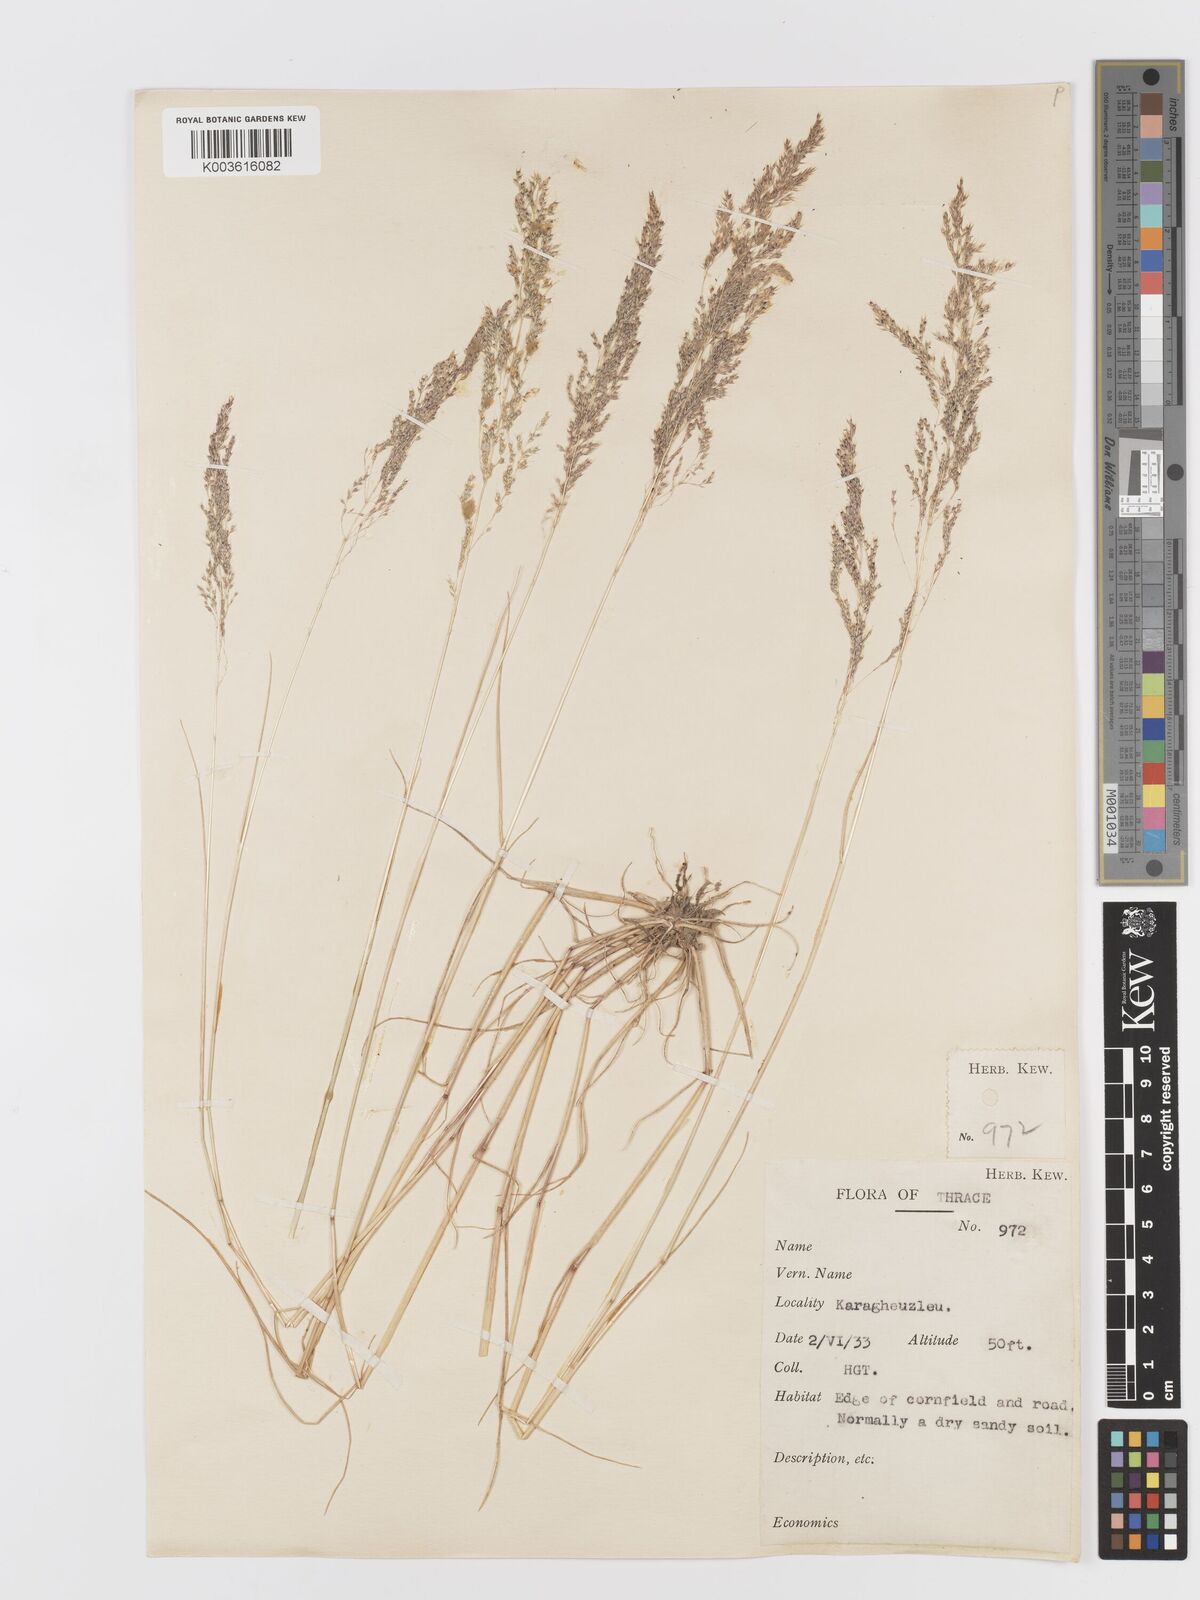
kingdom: Plantae
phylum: Tracheophyta
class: Liliopsida
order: Poales
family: Poaceae
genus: Parvotrisetum
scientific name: Parvotrisetum myrianthum
